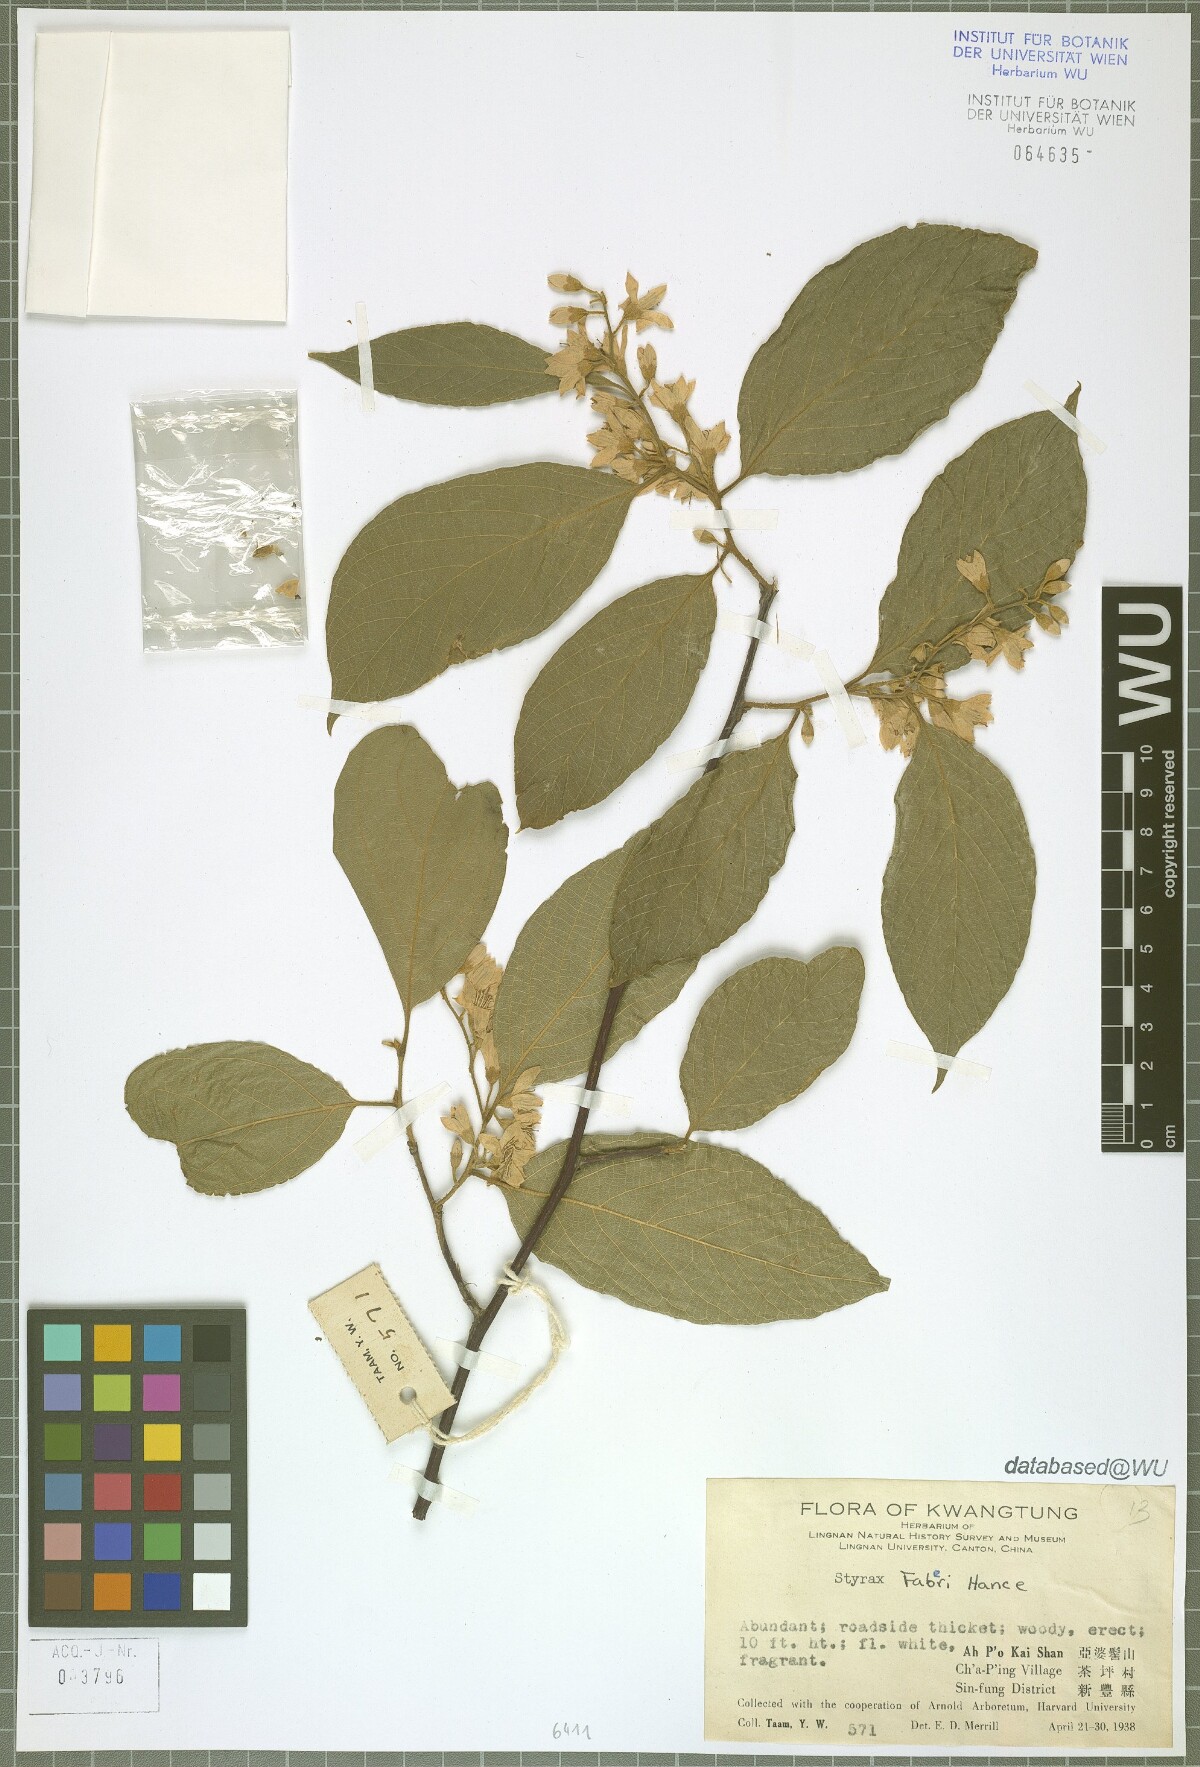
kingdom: Plantae
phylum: Tracheophyta
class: Magnoliopsida
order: Ericales
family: Styracaceae
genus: Styrax
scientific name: Styrax faberi
